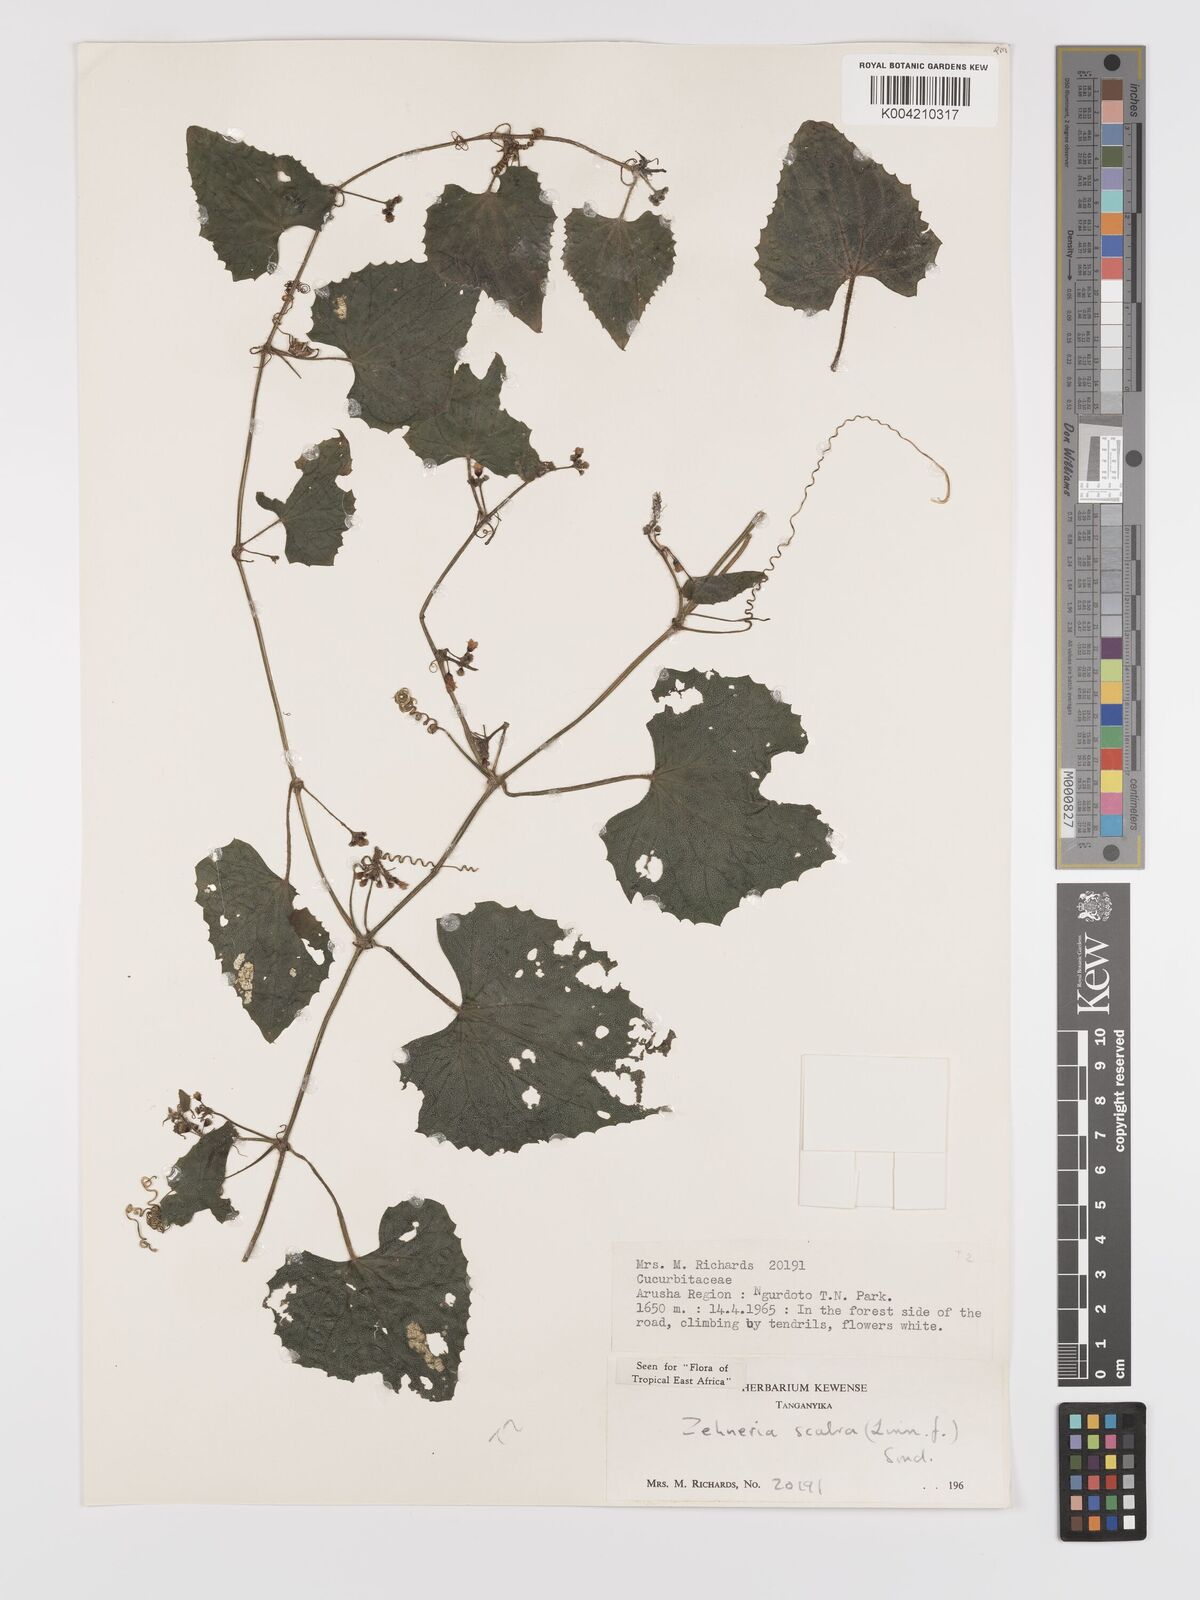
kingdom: Plantae
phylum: Tracheophyta
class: Magnoliopsida
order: Cucurbitales
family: Cucurbitaceae
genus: Zehneria
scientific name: Zehneria scabra
